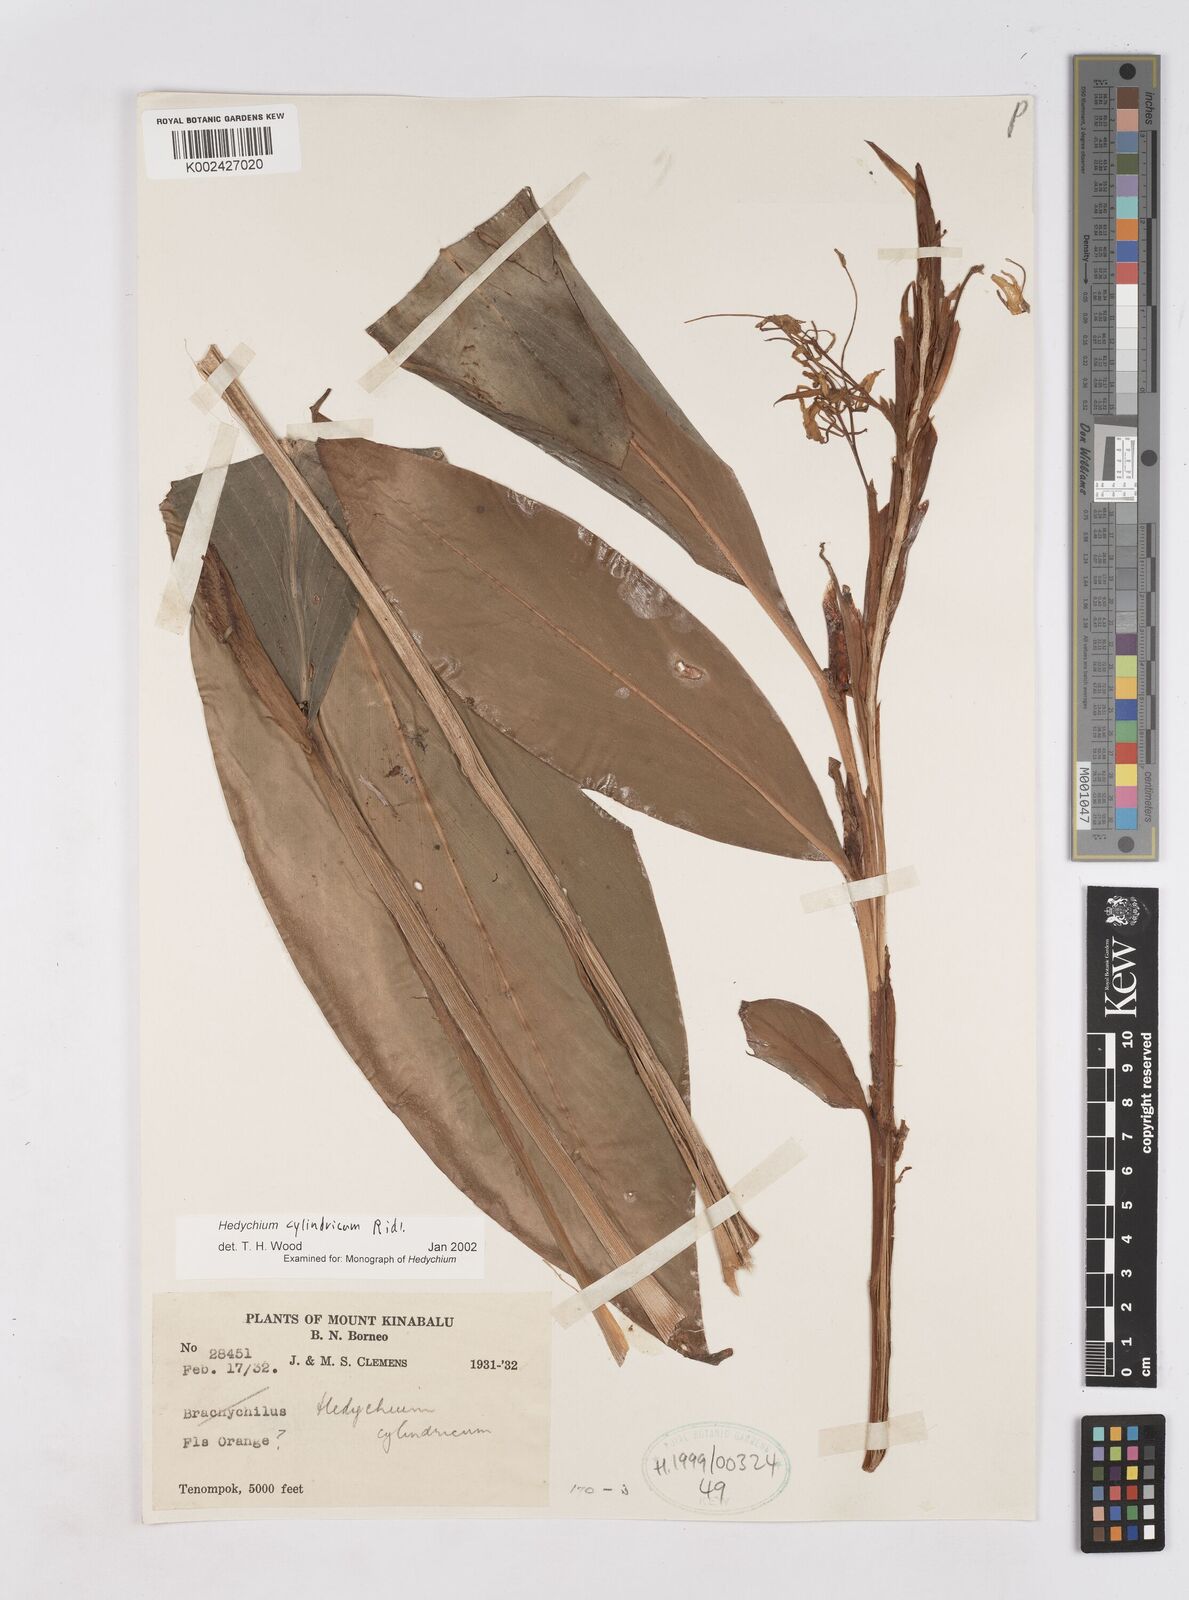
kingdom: Plantae
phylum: Tracheophyta
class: Liliopsida
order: Zingiberales
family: Zingiberaceae
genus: Hedychium
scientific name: Hedychium cylindricum
